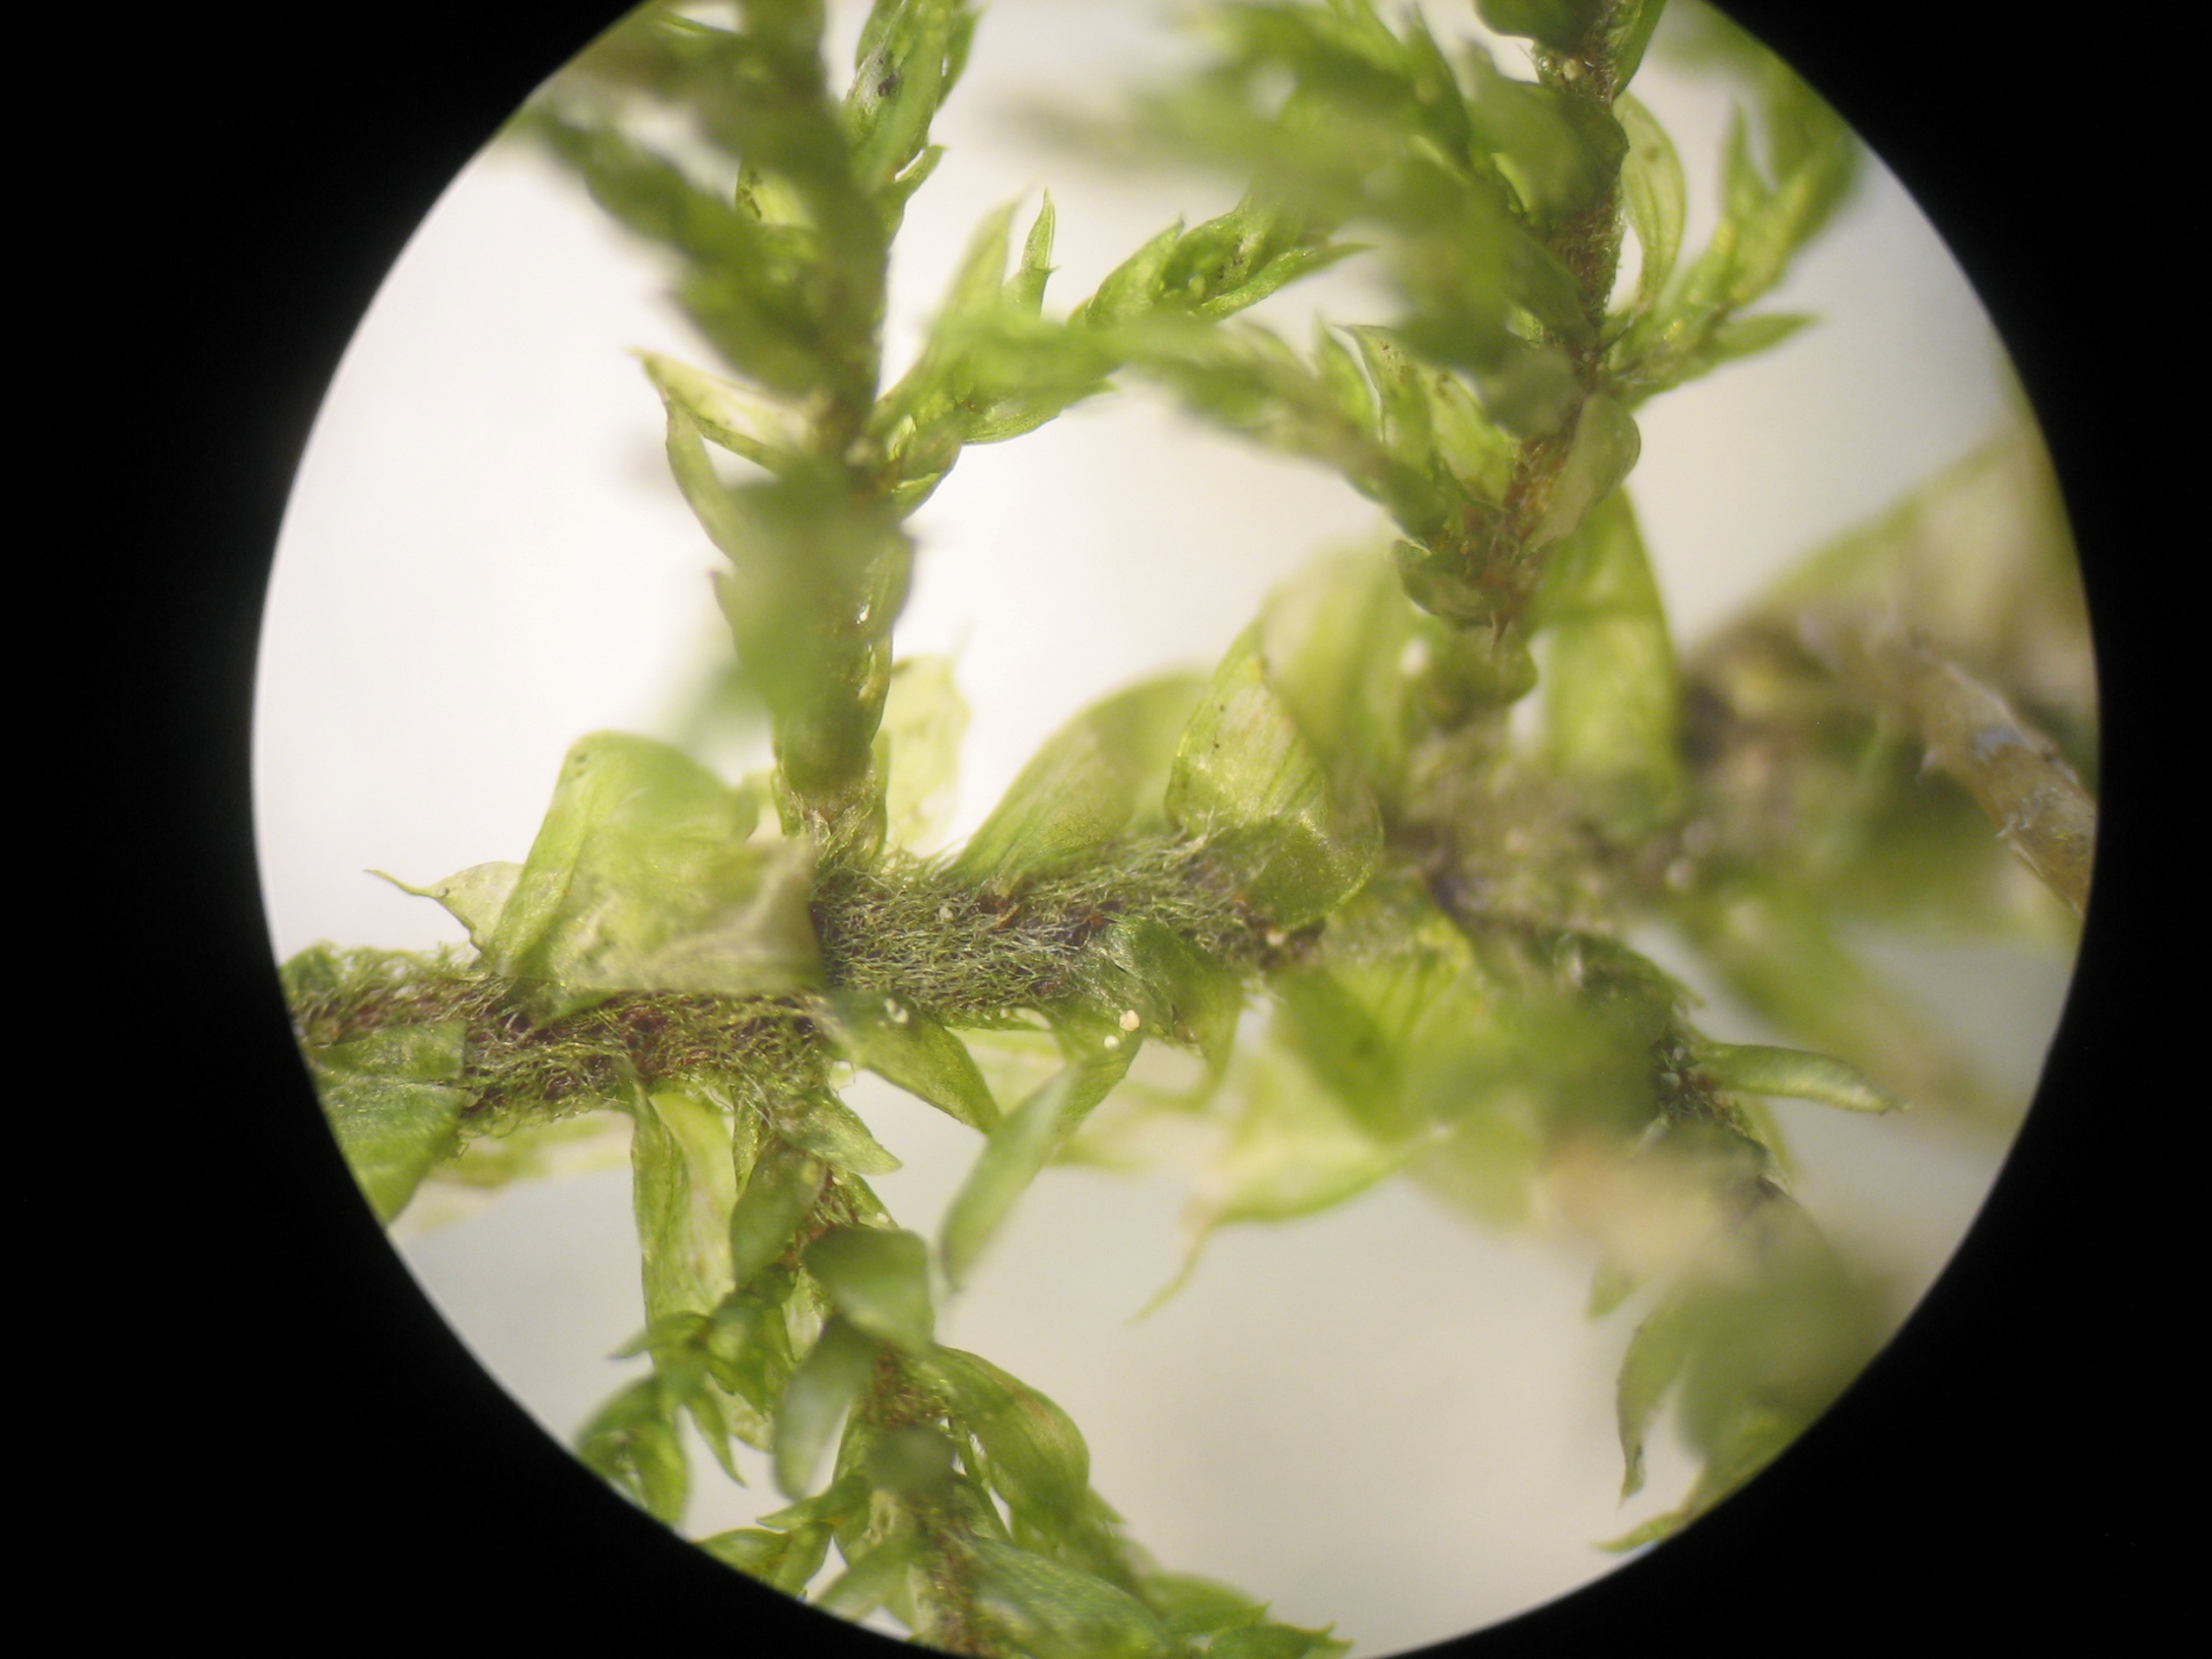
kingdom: Plantae
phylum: Bryophyta
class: Bryopsida
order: Hypnales
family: Hylocomiaceae
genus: Hylocomium
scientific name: Hylocomium splendens
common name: Almindelig etagemos
